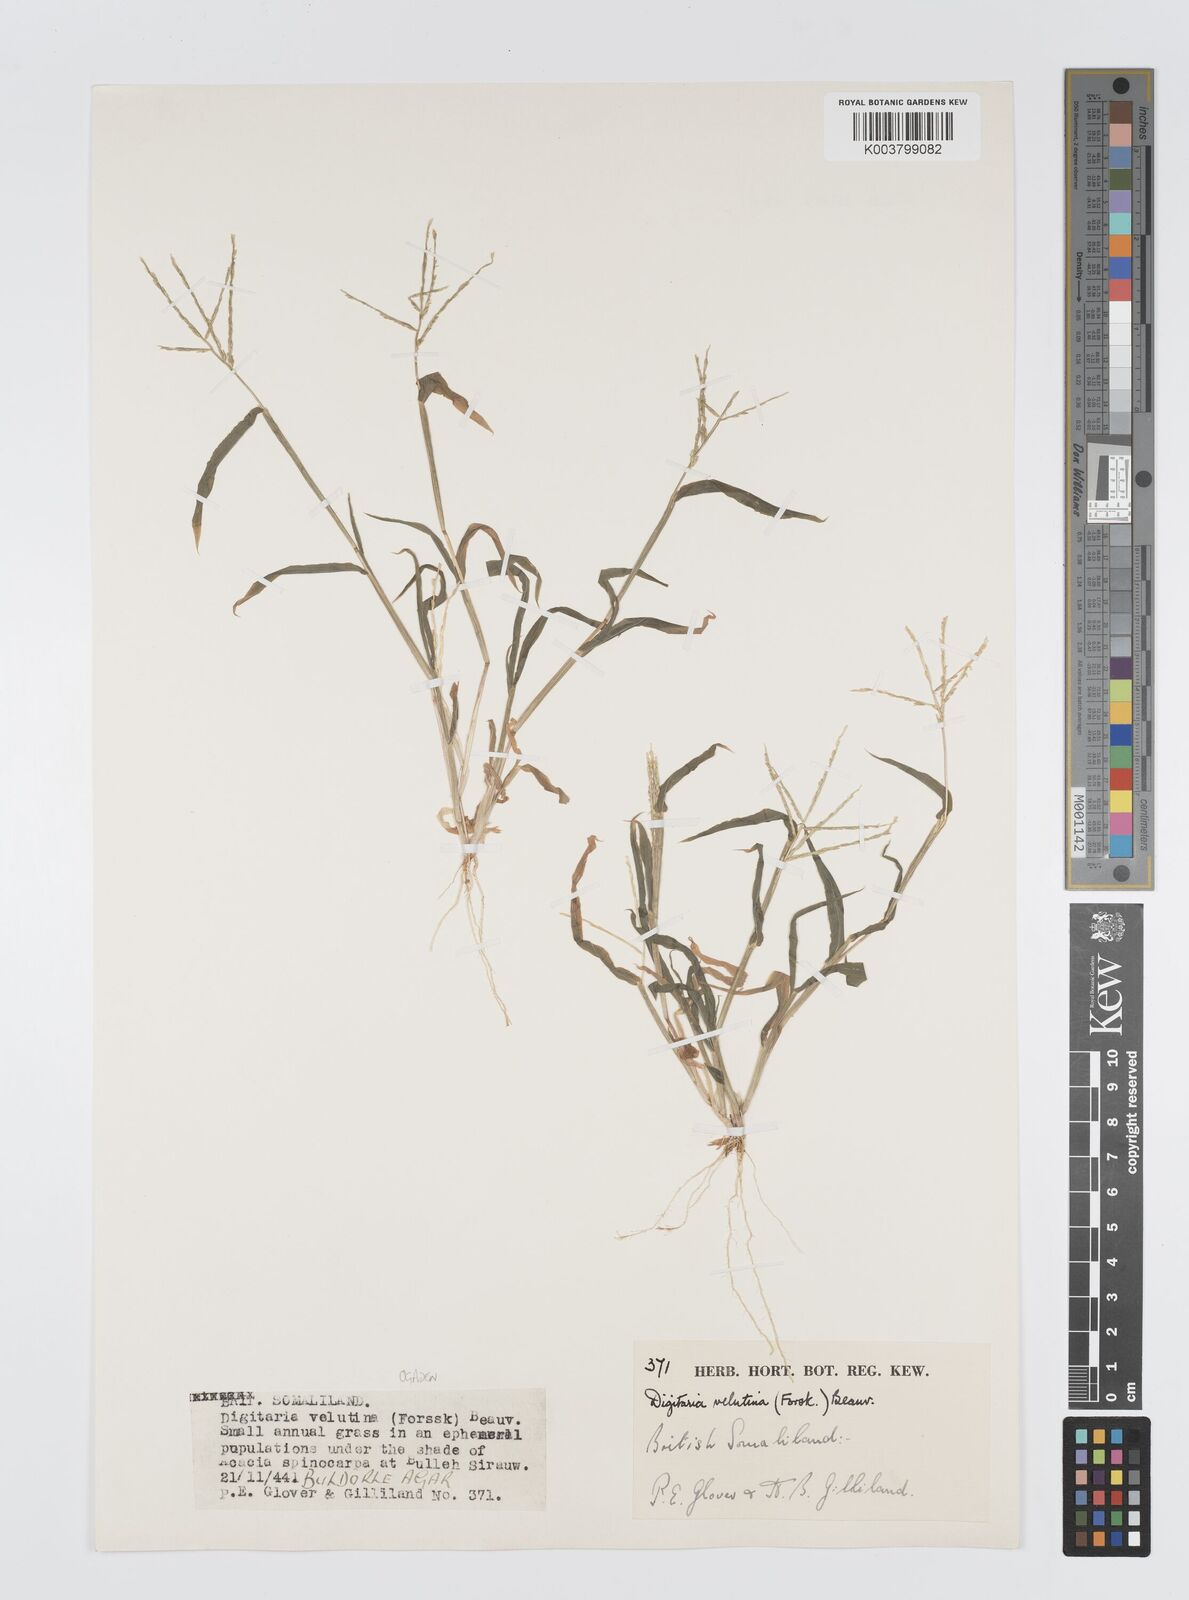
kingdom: Plantae
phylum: Tracheophyta
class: Liliopsida
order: Poales
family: Poaceae
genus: Digitaria
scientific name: Digitaria velutina
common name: Long-plume finger grass
